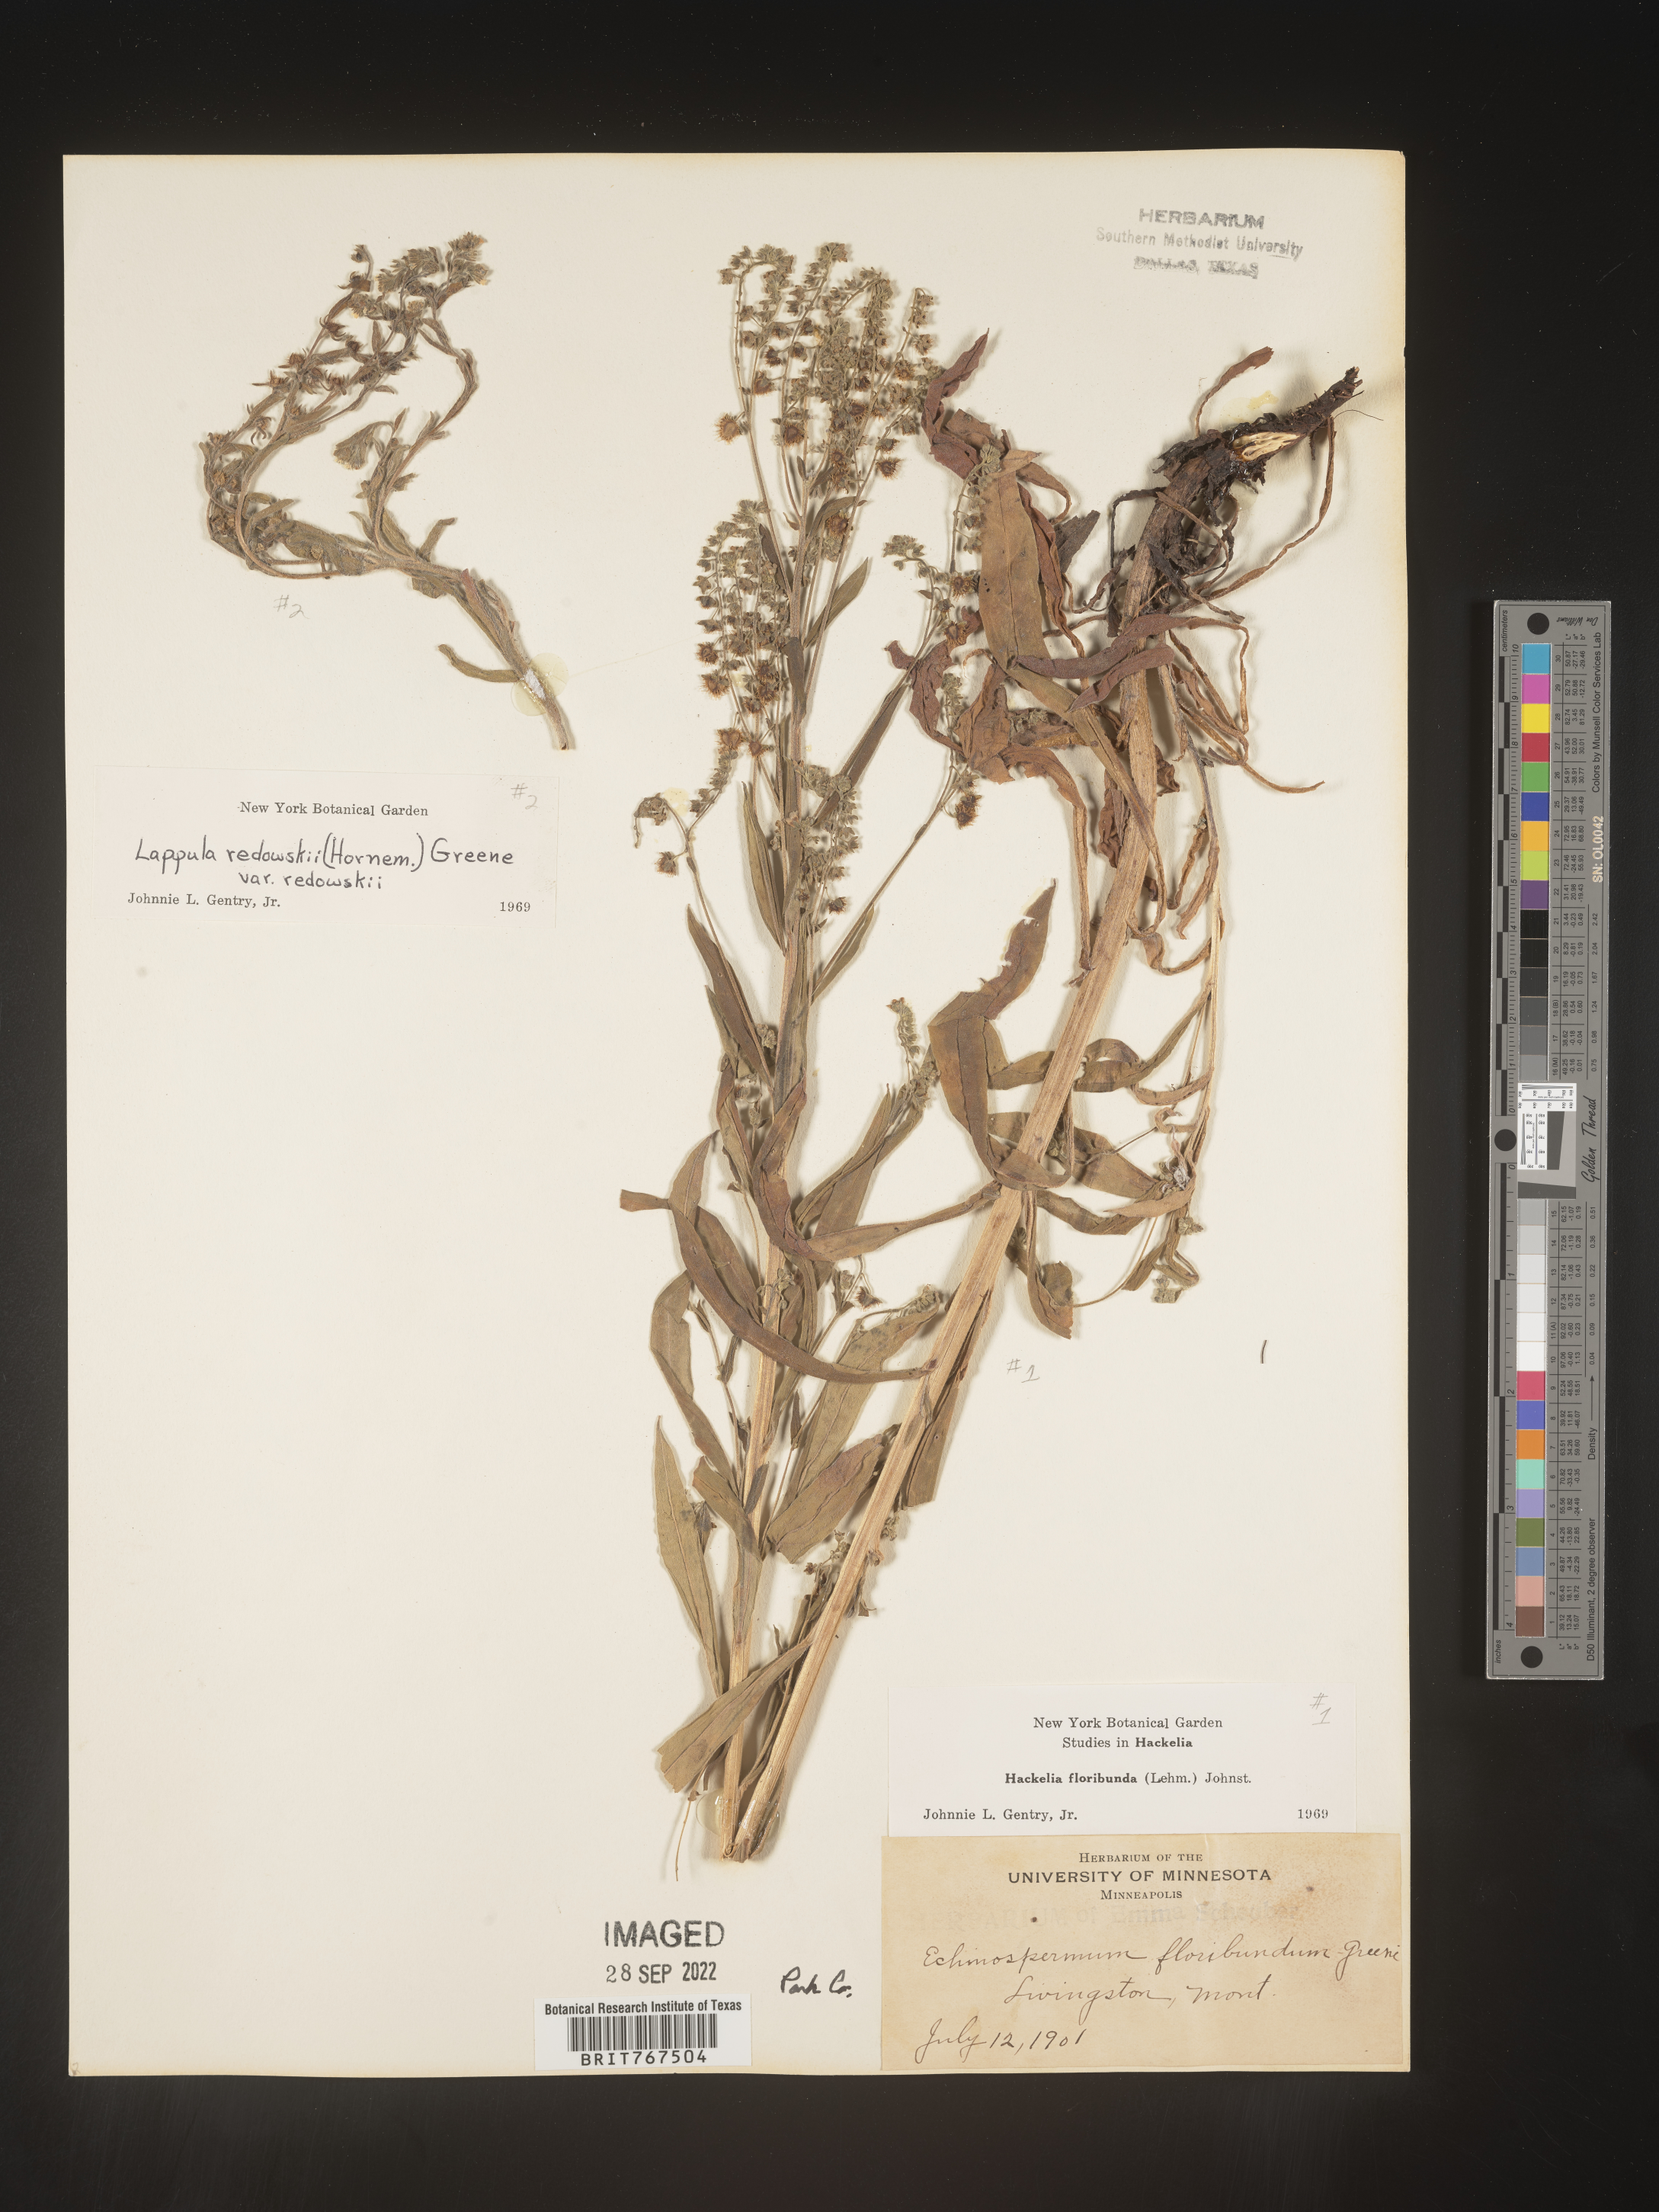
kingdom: Plantae
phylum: Tracheophyta
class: Magnoliopsida
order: Boraginales
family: Boraginaceae
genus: Hackelia
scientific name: Hackelia floribunda
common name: Large-flowered stickseed
